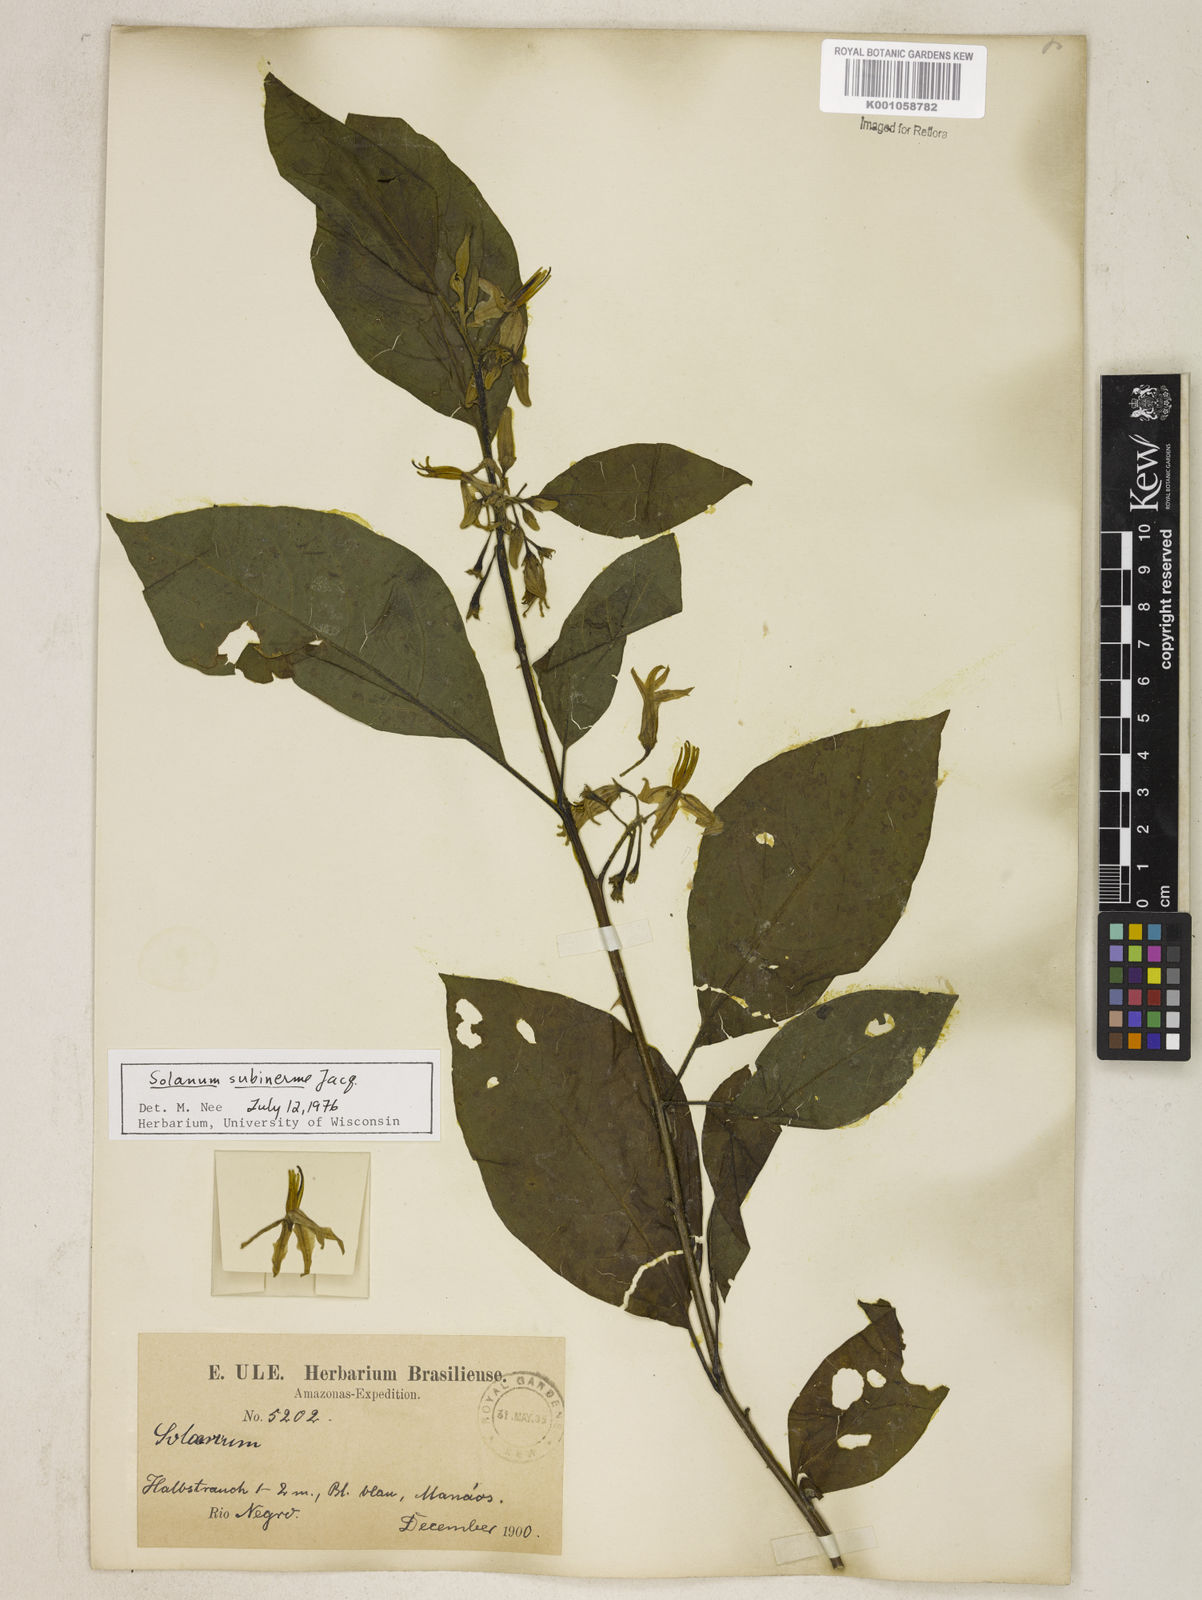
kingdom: Plantae
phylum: Tracheophyta
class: Magnoliopsida
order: Solanales
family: Solanaceae
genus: Solanum
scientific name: Solanum subinerme
